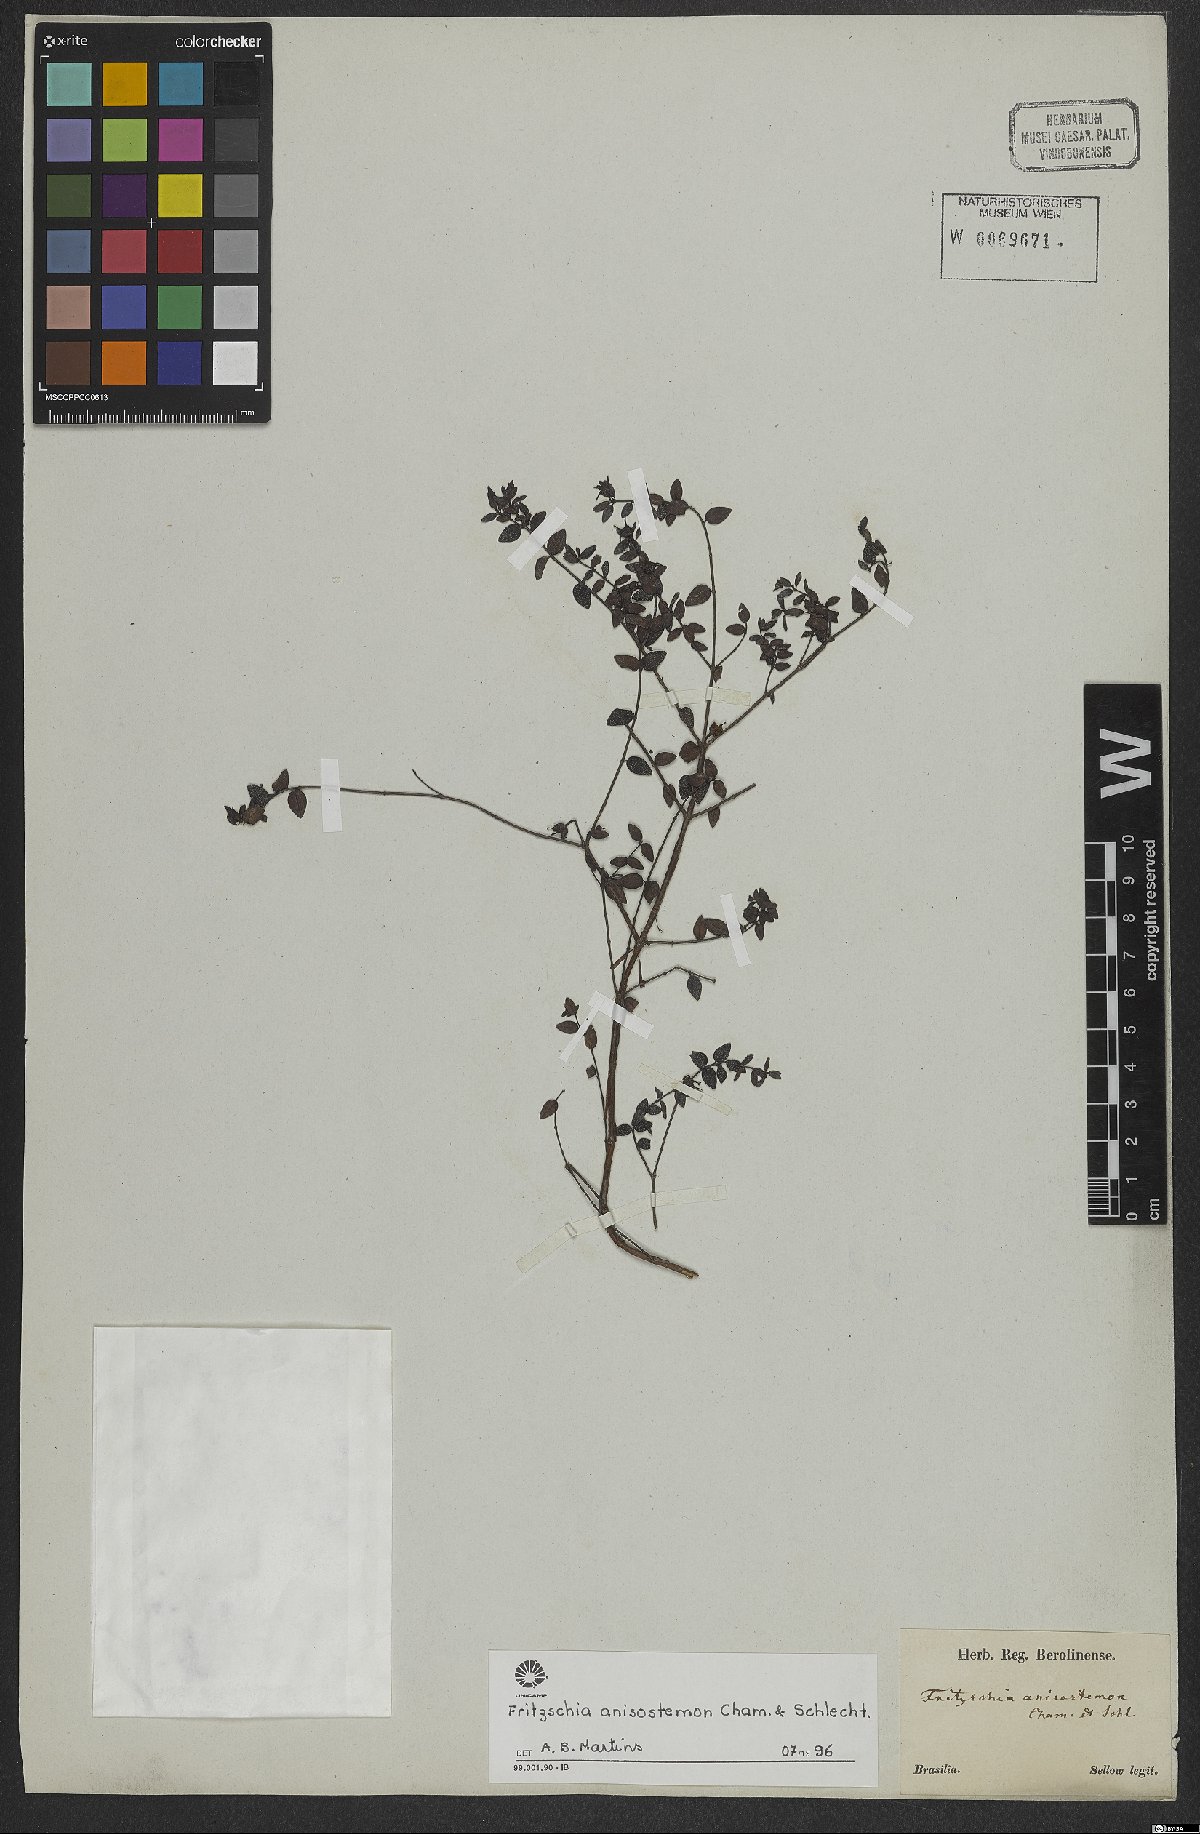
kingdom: Plantae
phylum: Tracheophyta
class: Magnoliopsida
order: Myrtales
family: Melastomataceae
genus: Fritzschia
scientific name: Fritzschia anisostemon
